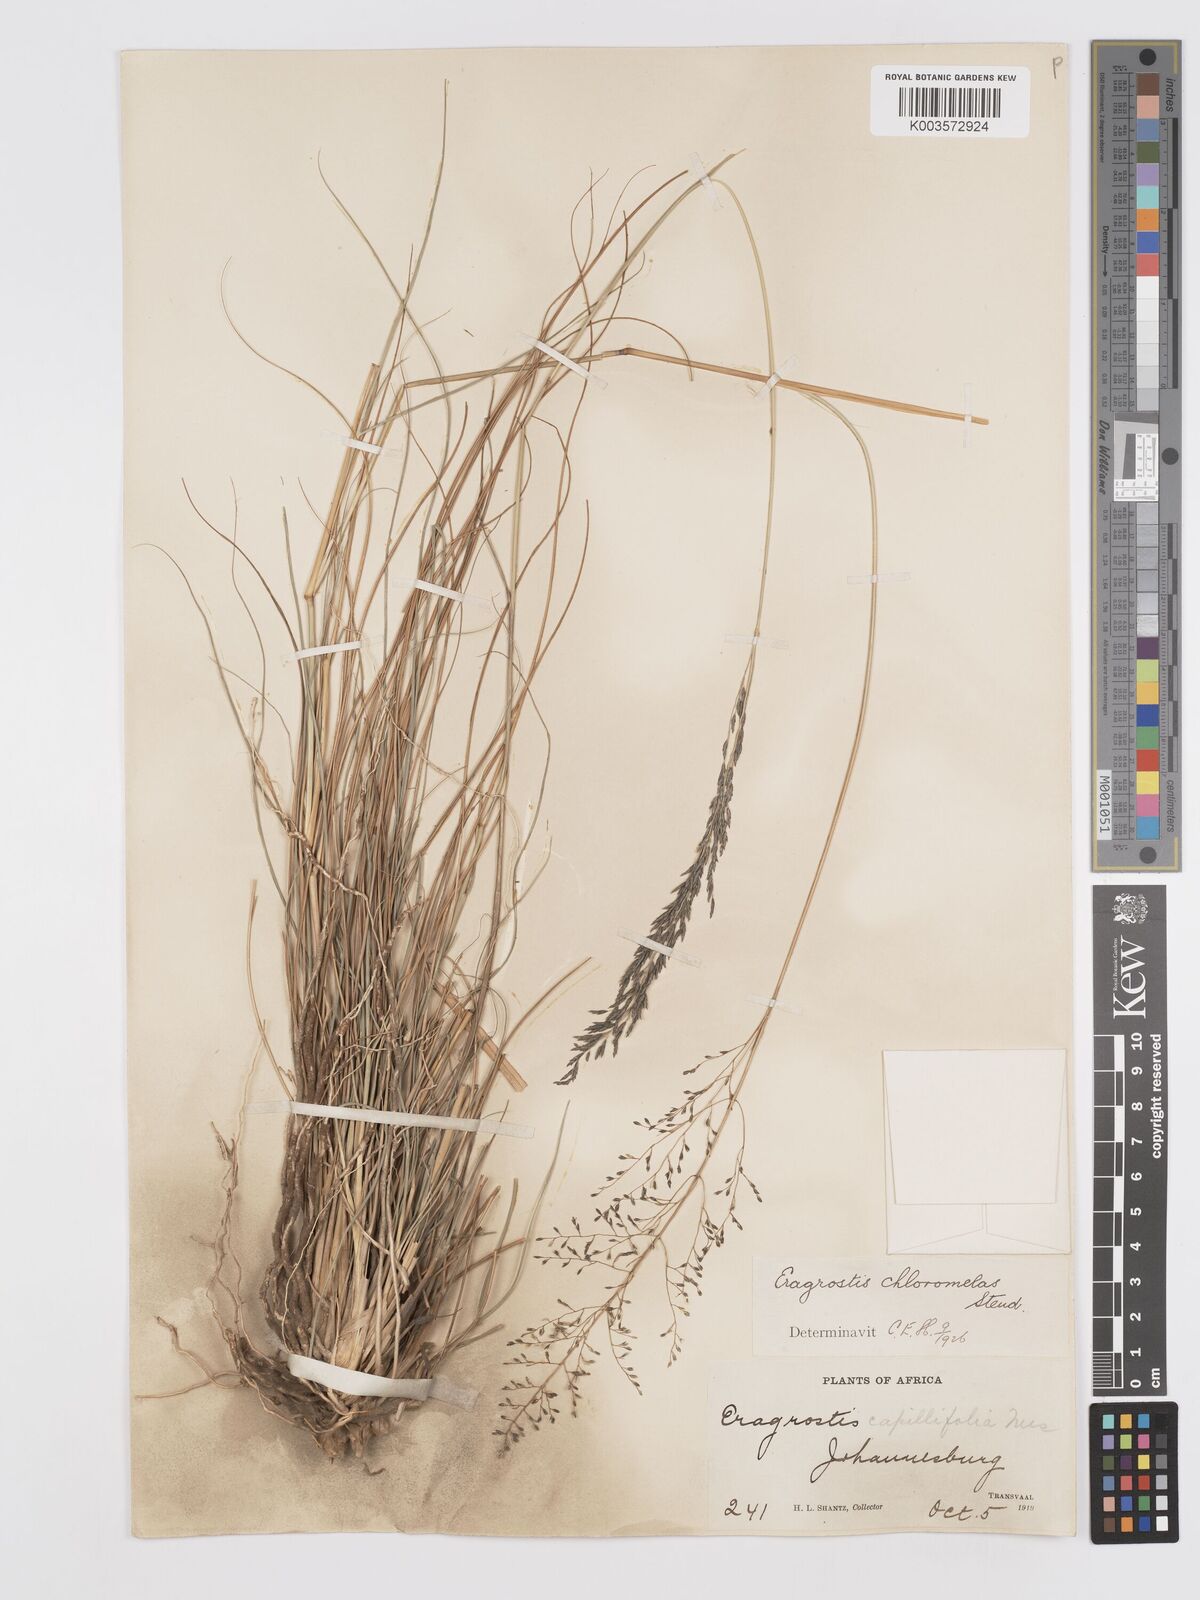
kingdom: Plantae
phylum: Tracheophyta
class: Liliopsida
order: Poales
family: Poaceae
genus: Eragrostis
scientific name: Eragrostis curvula
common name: African love-grass
